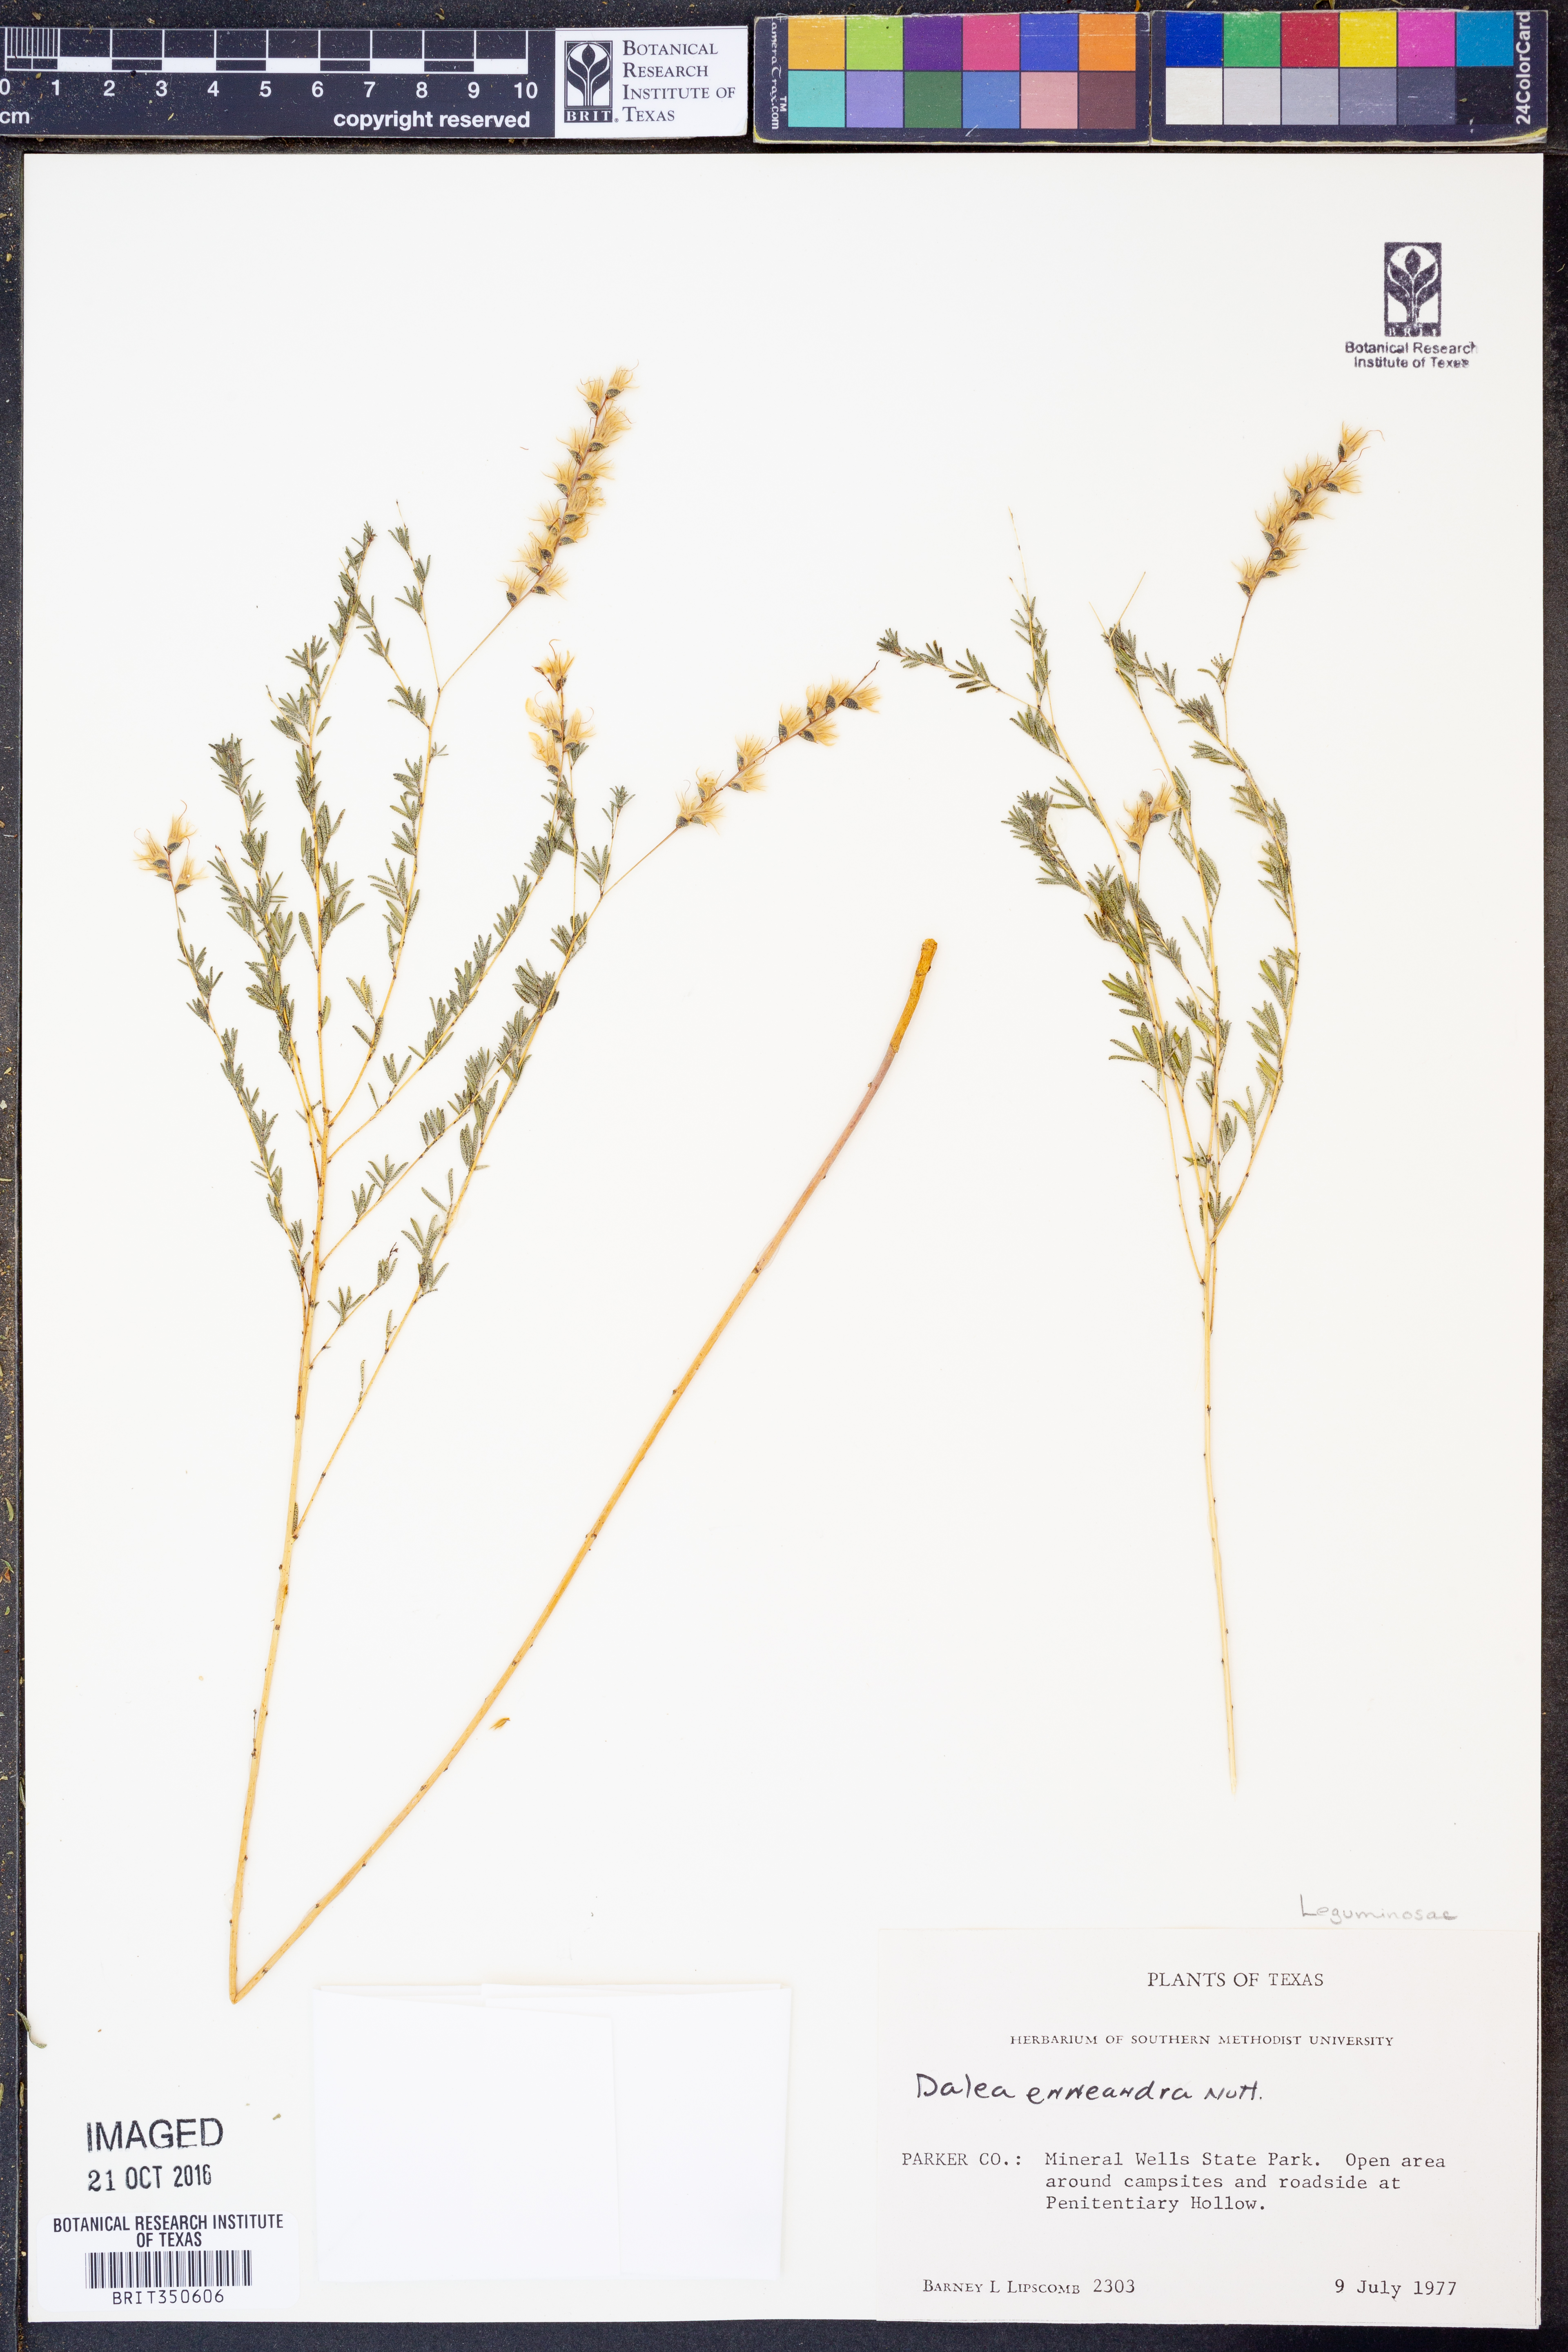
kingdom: Plantae
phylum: Tracheophyta
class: Magnoliopsida
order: Fabales
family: Fabaceae
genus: Dalea
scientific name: Dalea enneandra
